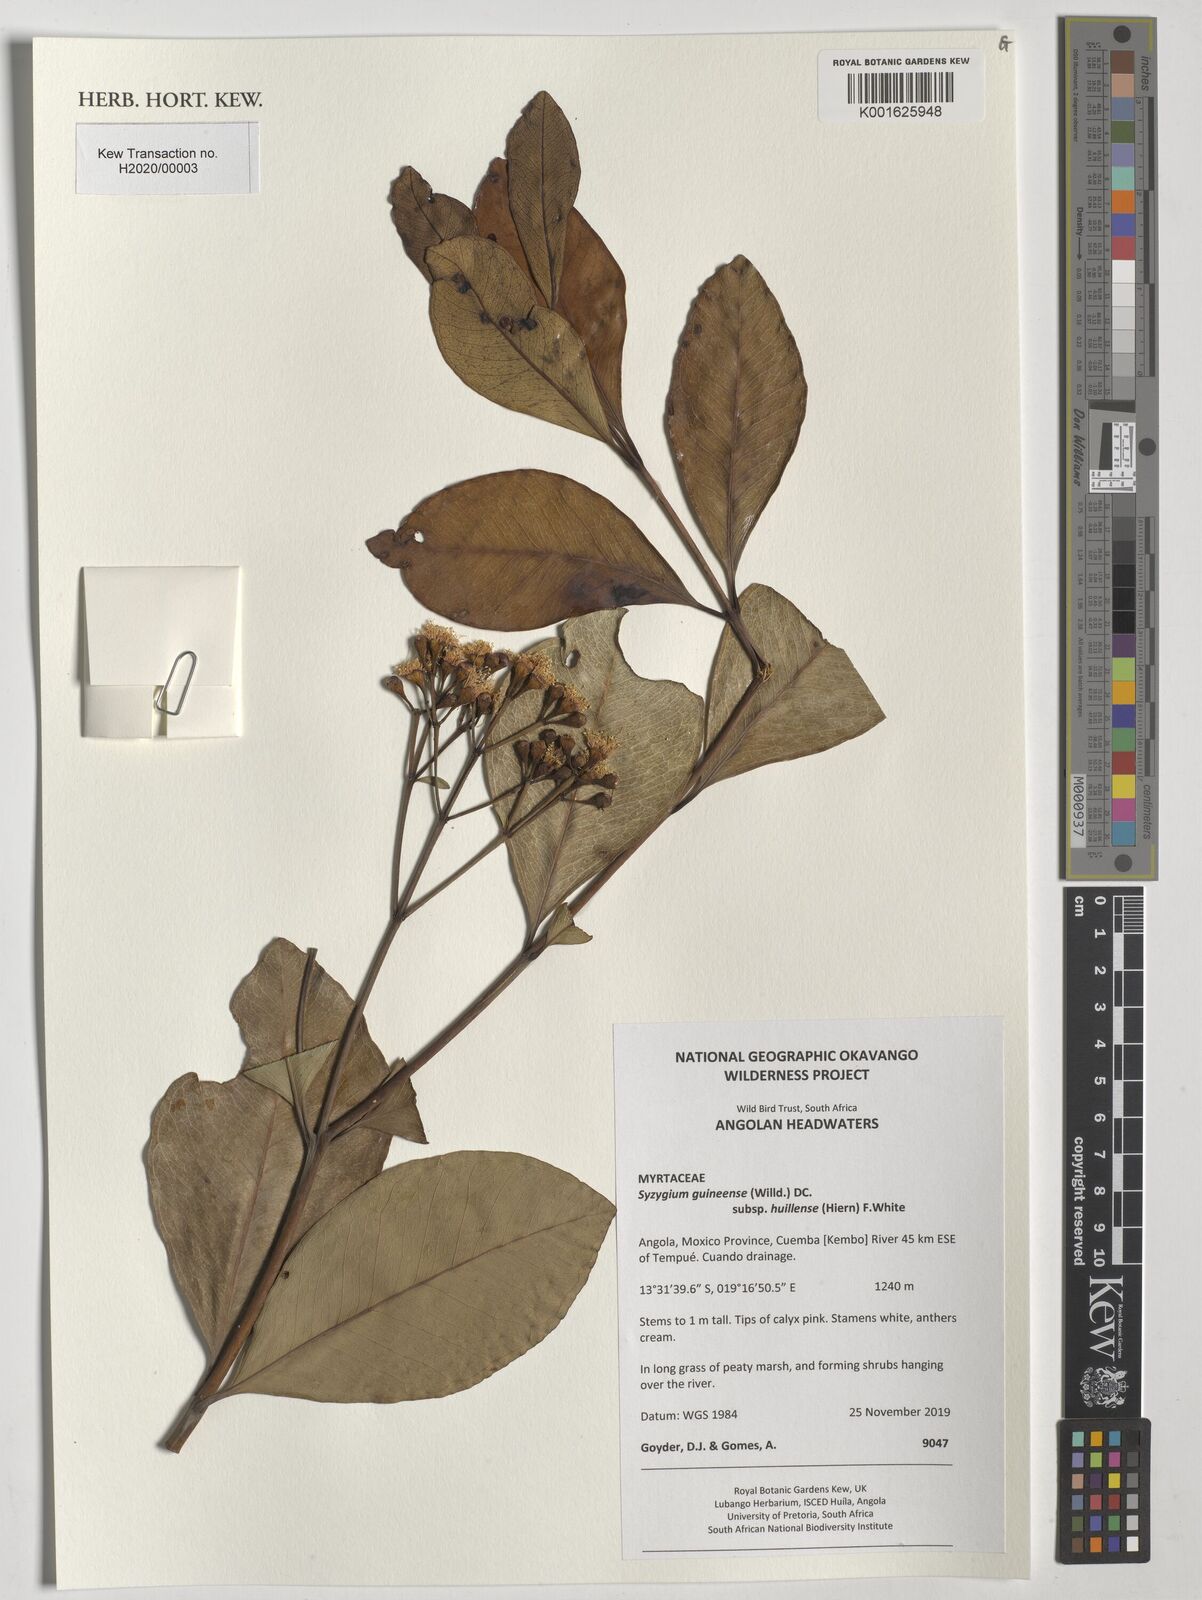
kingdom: Plantae
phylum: Tracheophyta
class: Magnoliopsida
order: Myrtales
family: Myrtaceae
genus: Syzygium
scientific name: Syzygium guineense
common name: Water-pear
